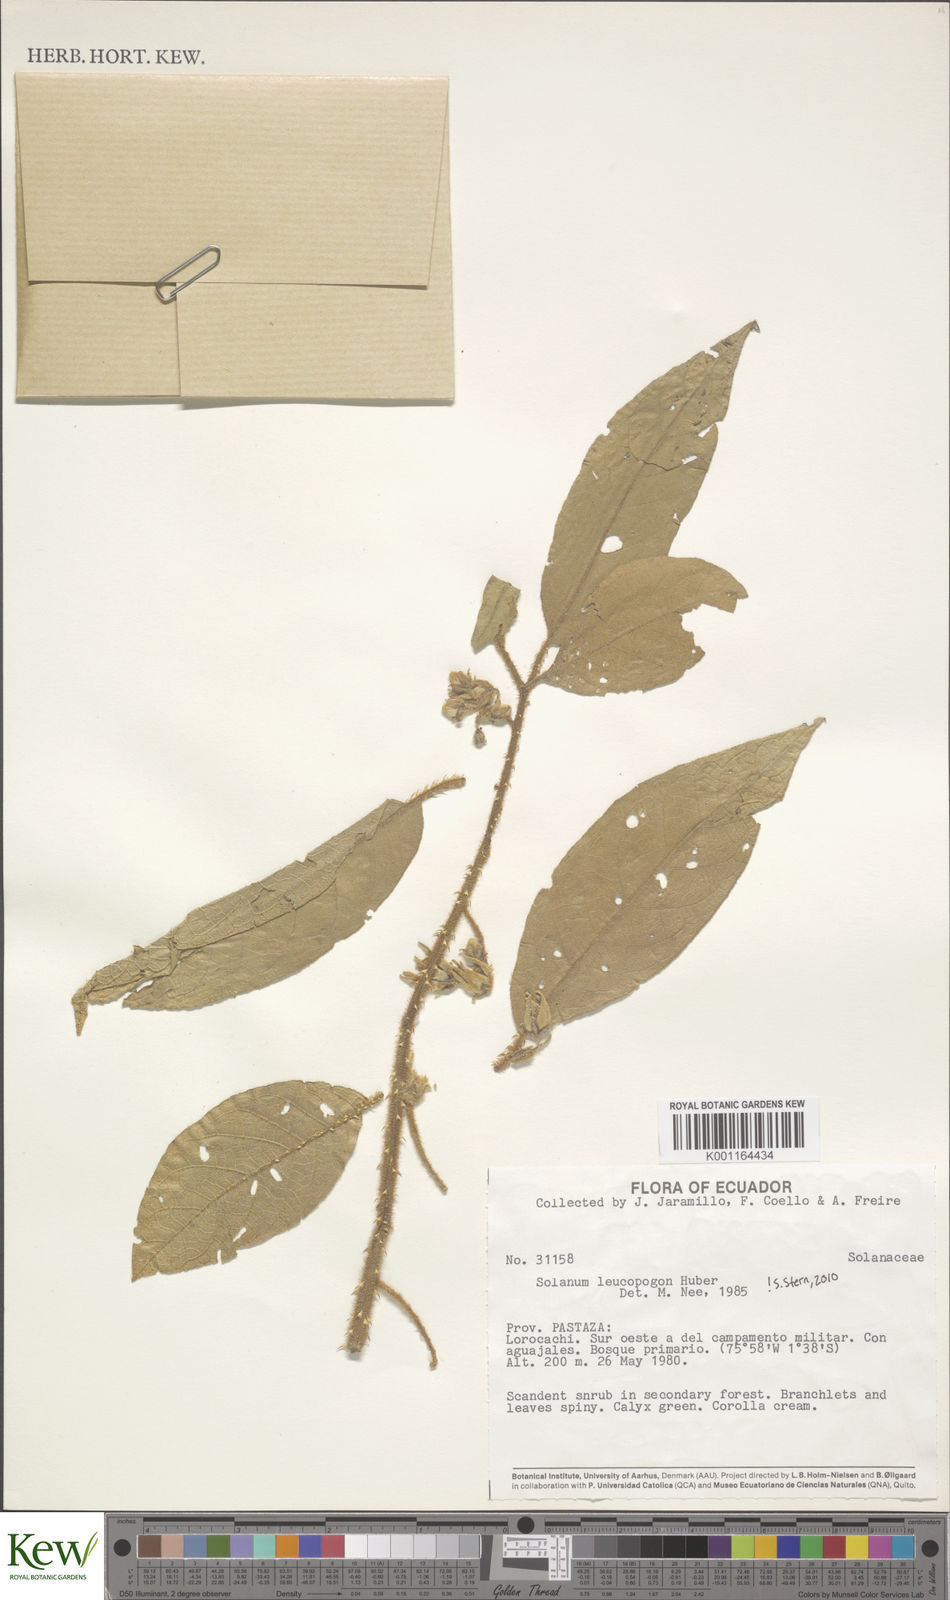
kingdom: Plantae
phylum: Tracheophyta
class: Magnoliopsida
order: Solanales
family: Solanaceae
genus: Solanum
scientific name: Solanum leucopogon
